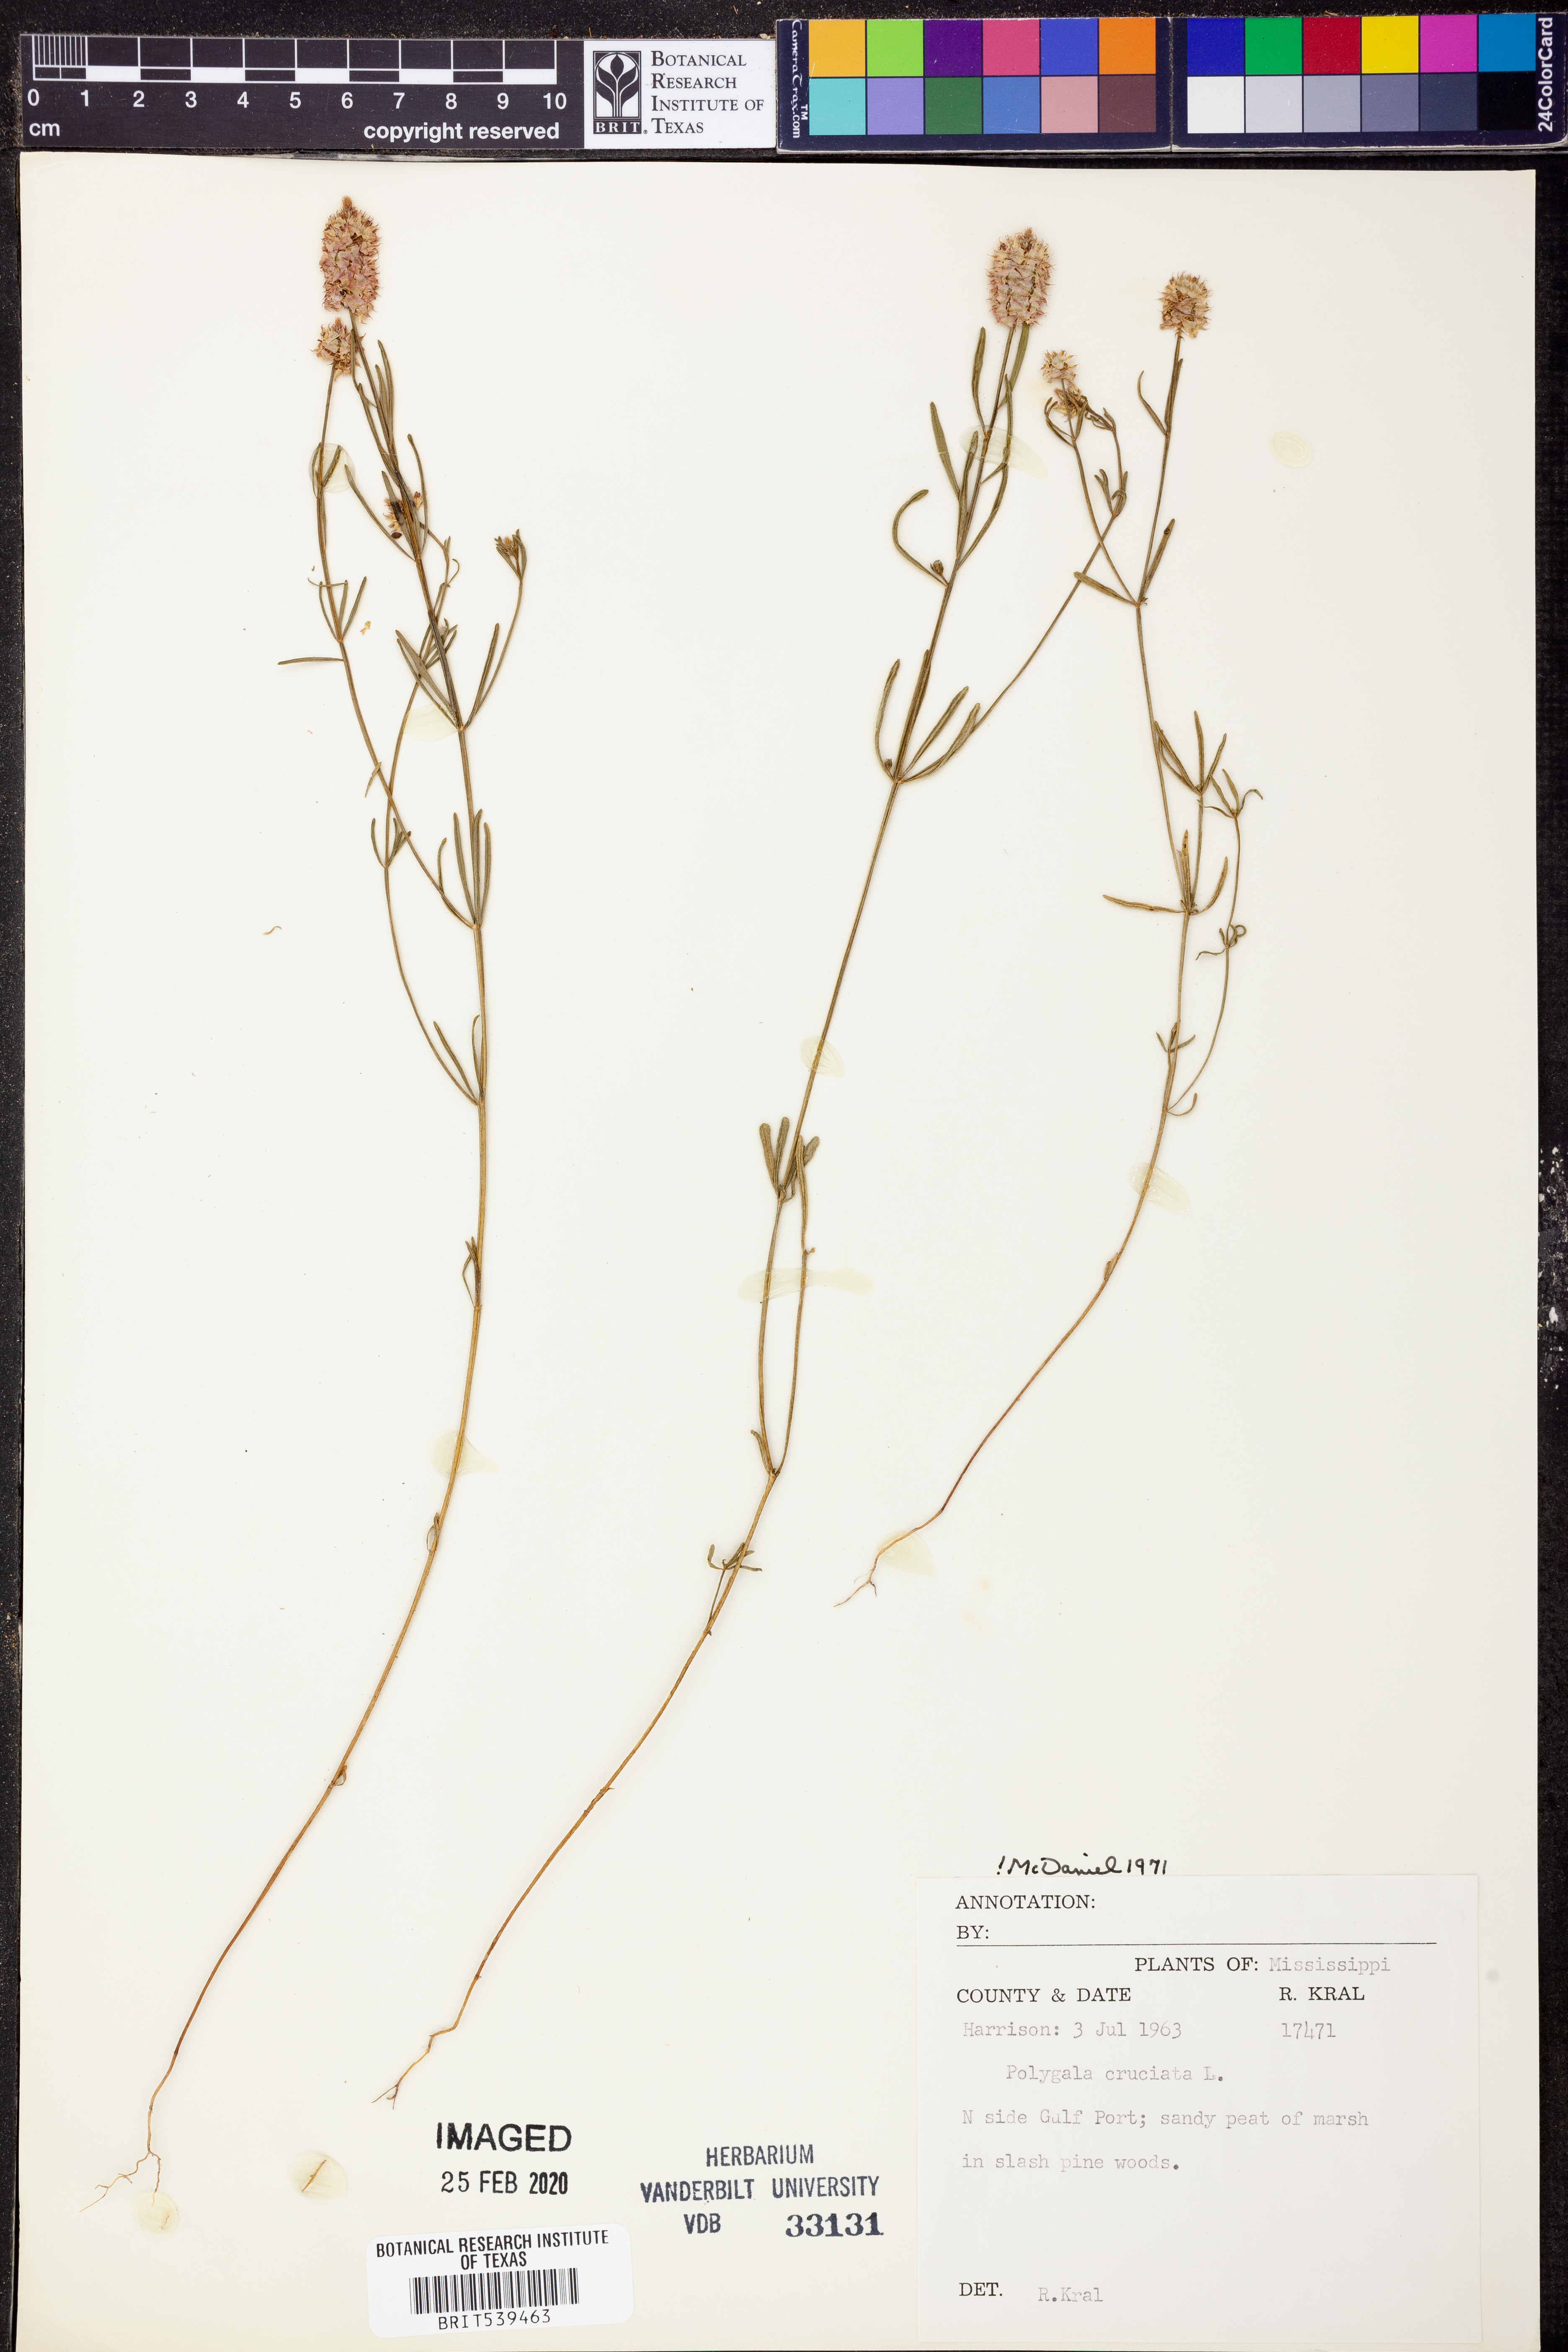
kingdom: Plantae
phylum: Tracheophyta
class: Magnoliopsida
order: Fabales
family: Polygalaceae
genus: Polygala
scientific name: Polygala cruciata
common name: Drumheads
